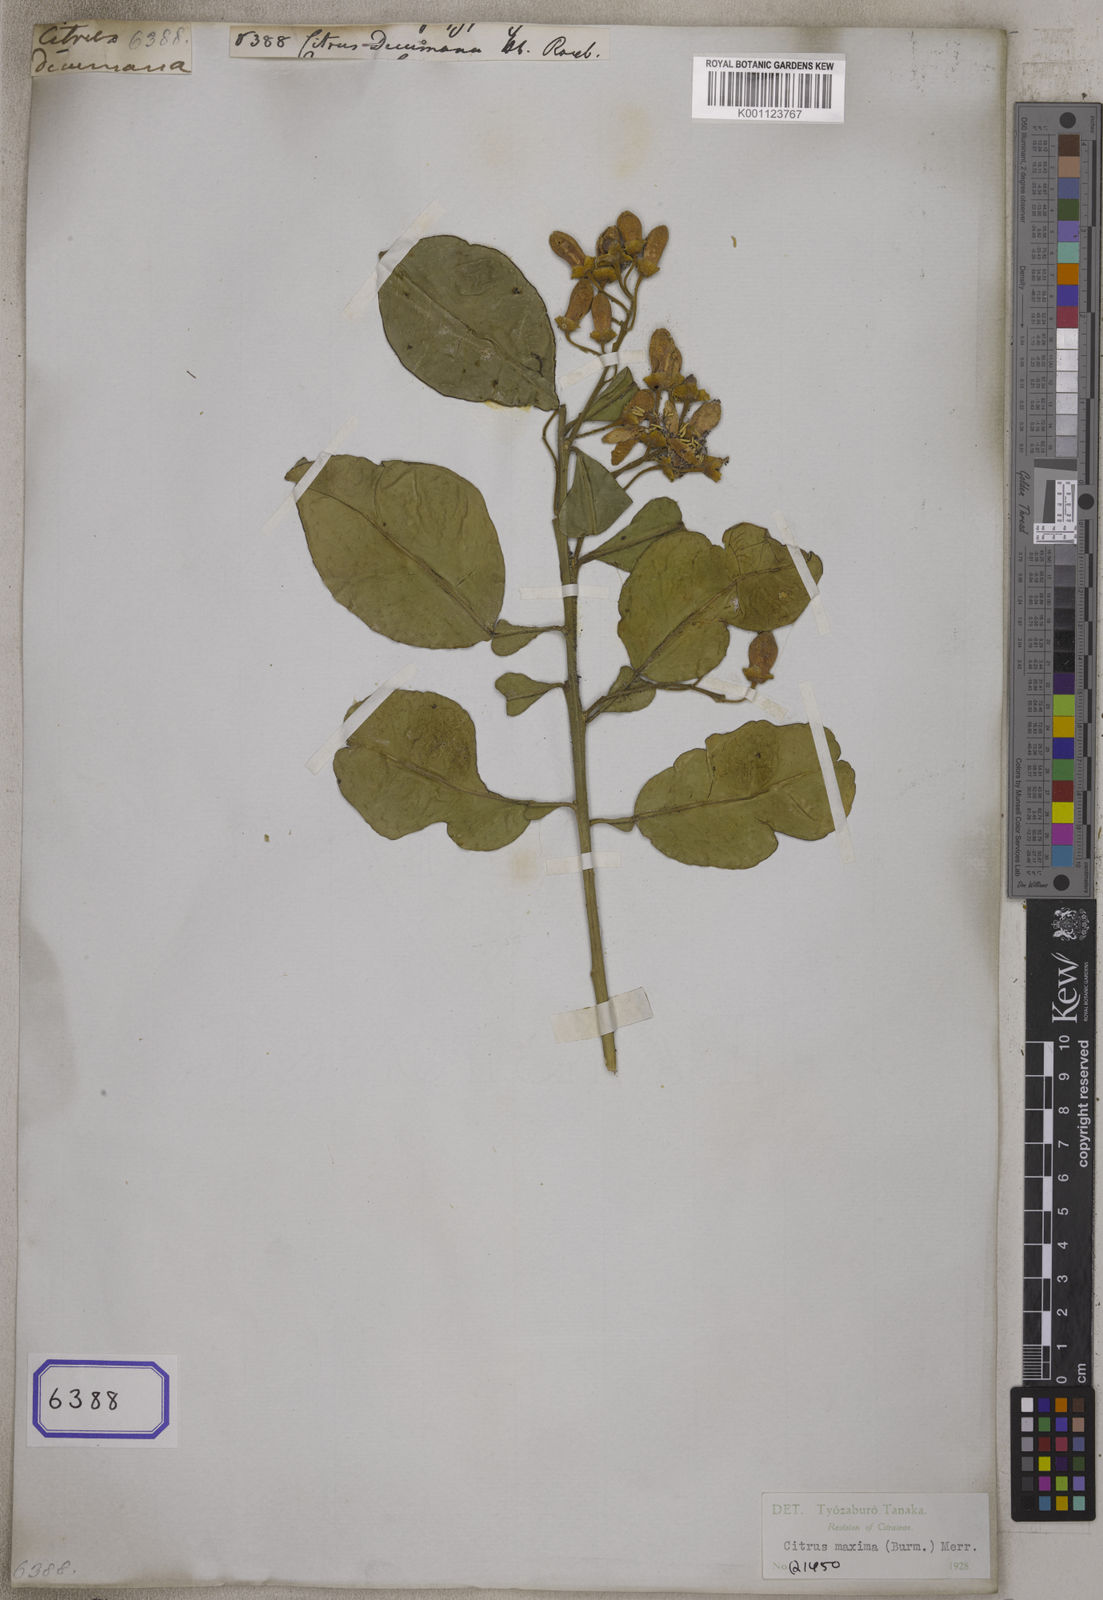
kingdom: Plantae
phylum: Tracheophyta
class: Magnoliopsida
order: Sapindales
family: Rutaceae
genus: Citrus
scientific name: Citrus
